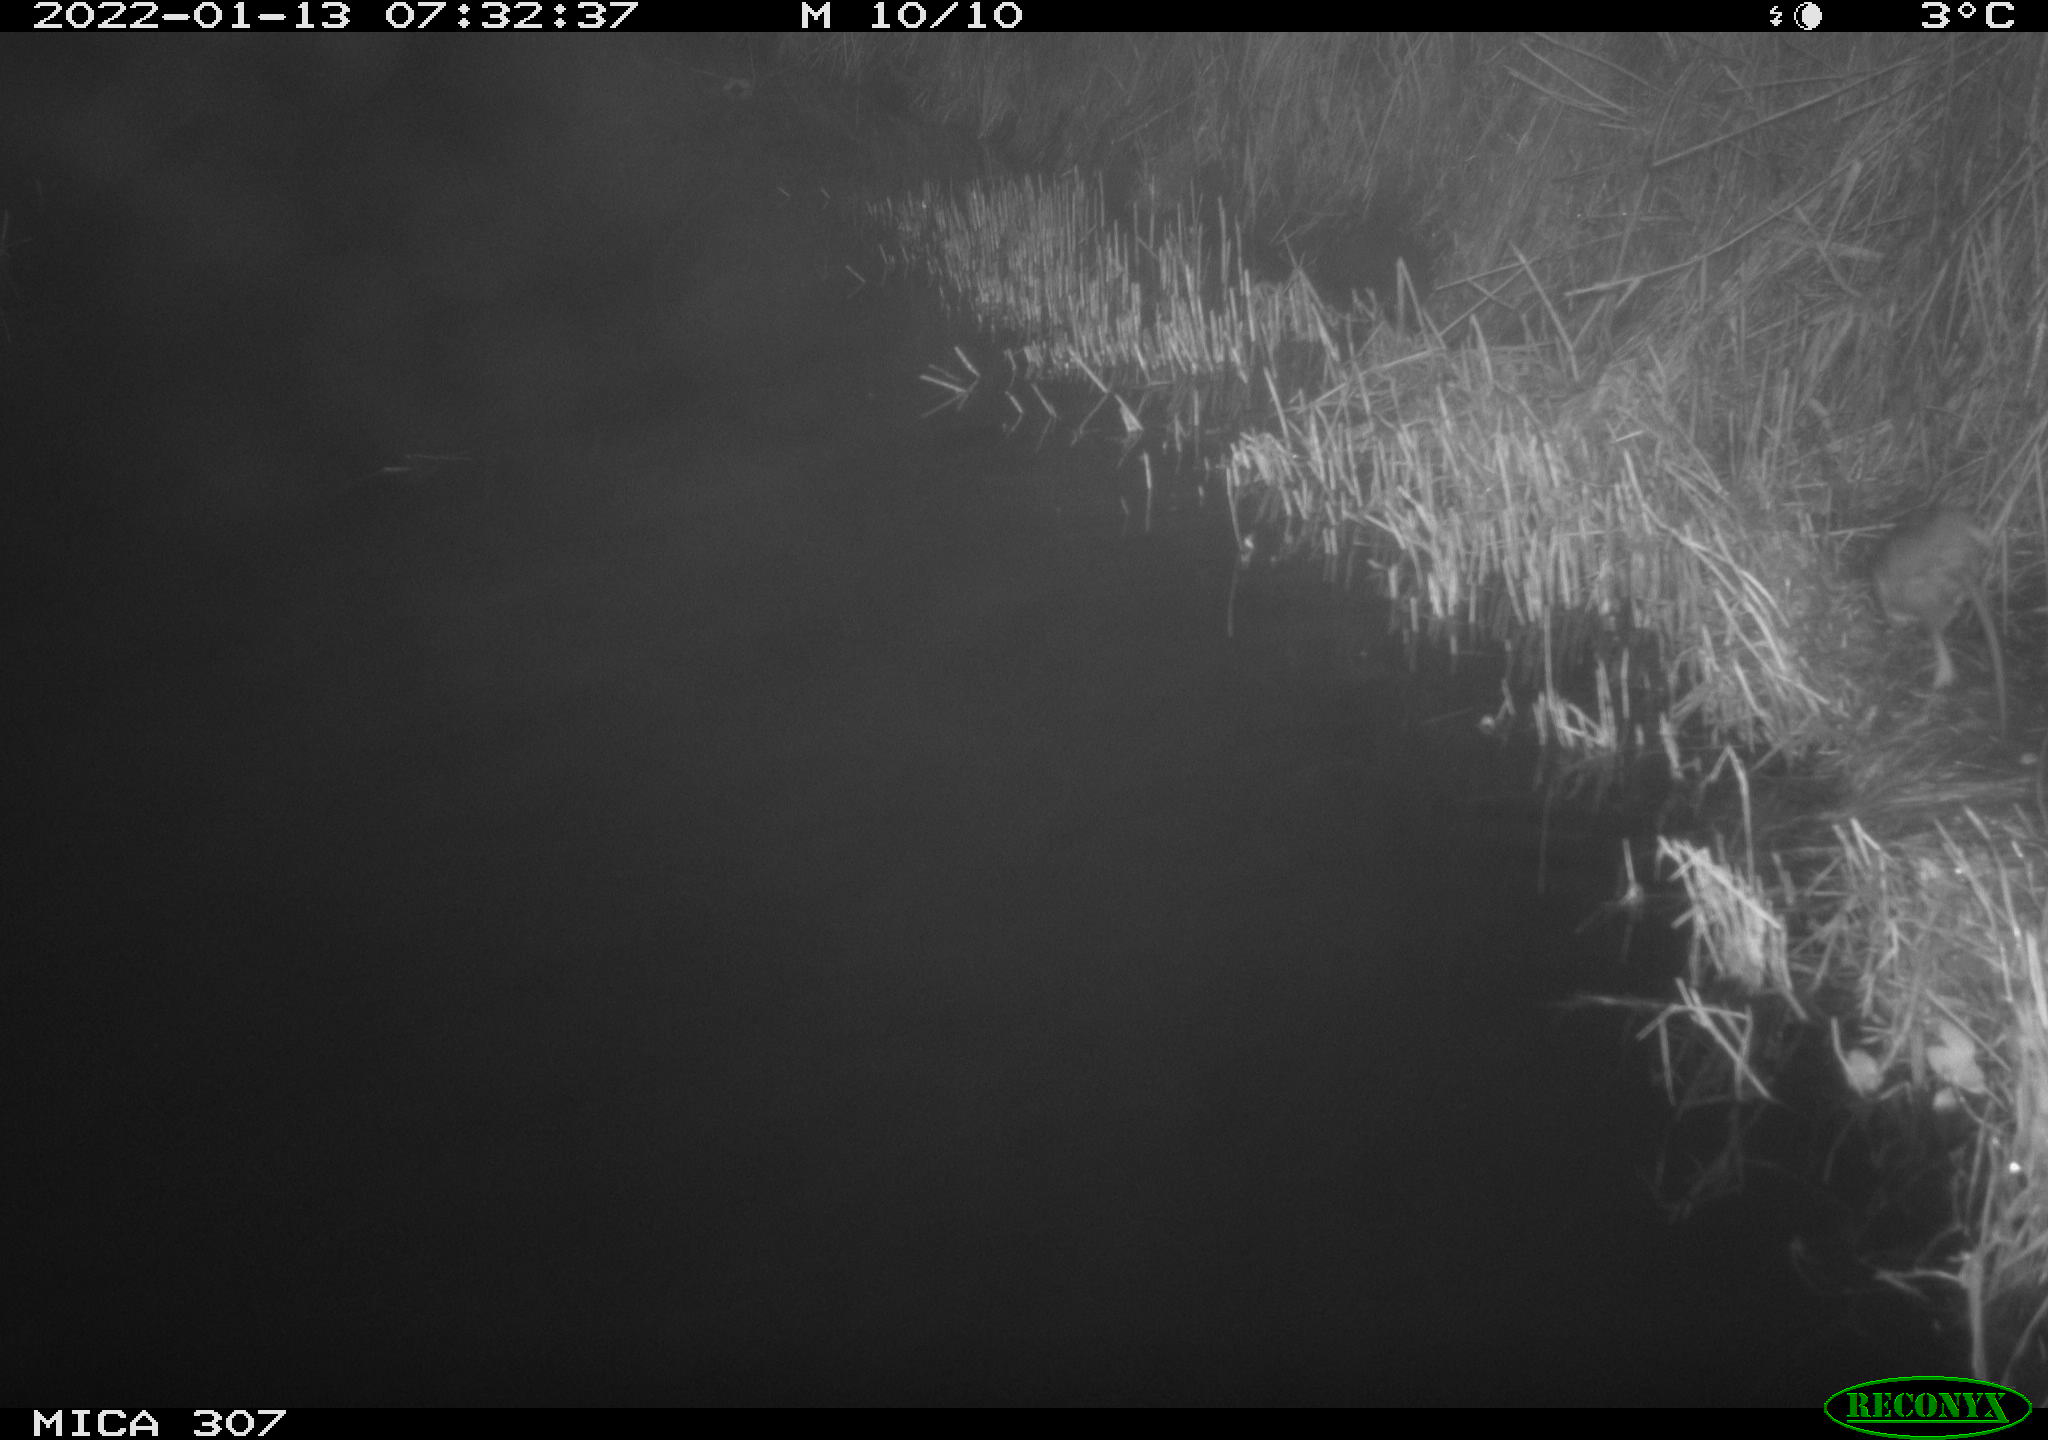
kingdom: Animalia
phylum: Chordata
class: Mammalia
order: Rodentia
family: Muridae
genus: Rattus
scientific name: Rattus norvegicus
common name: Brown rat
